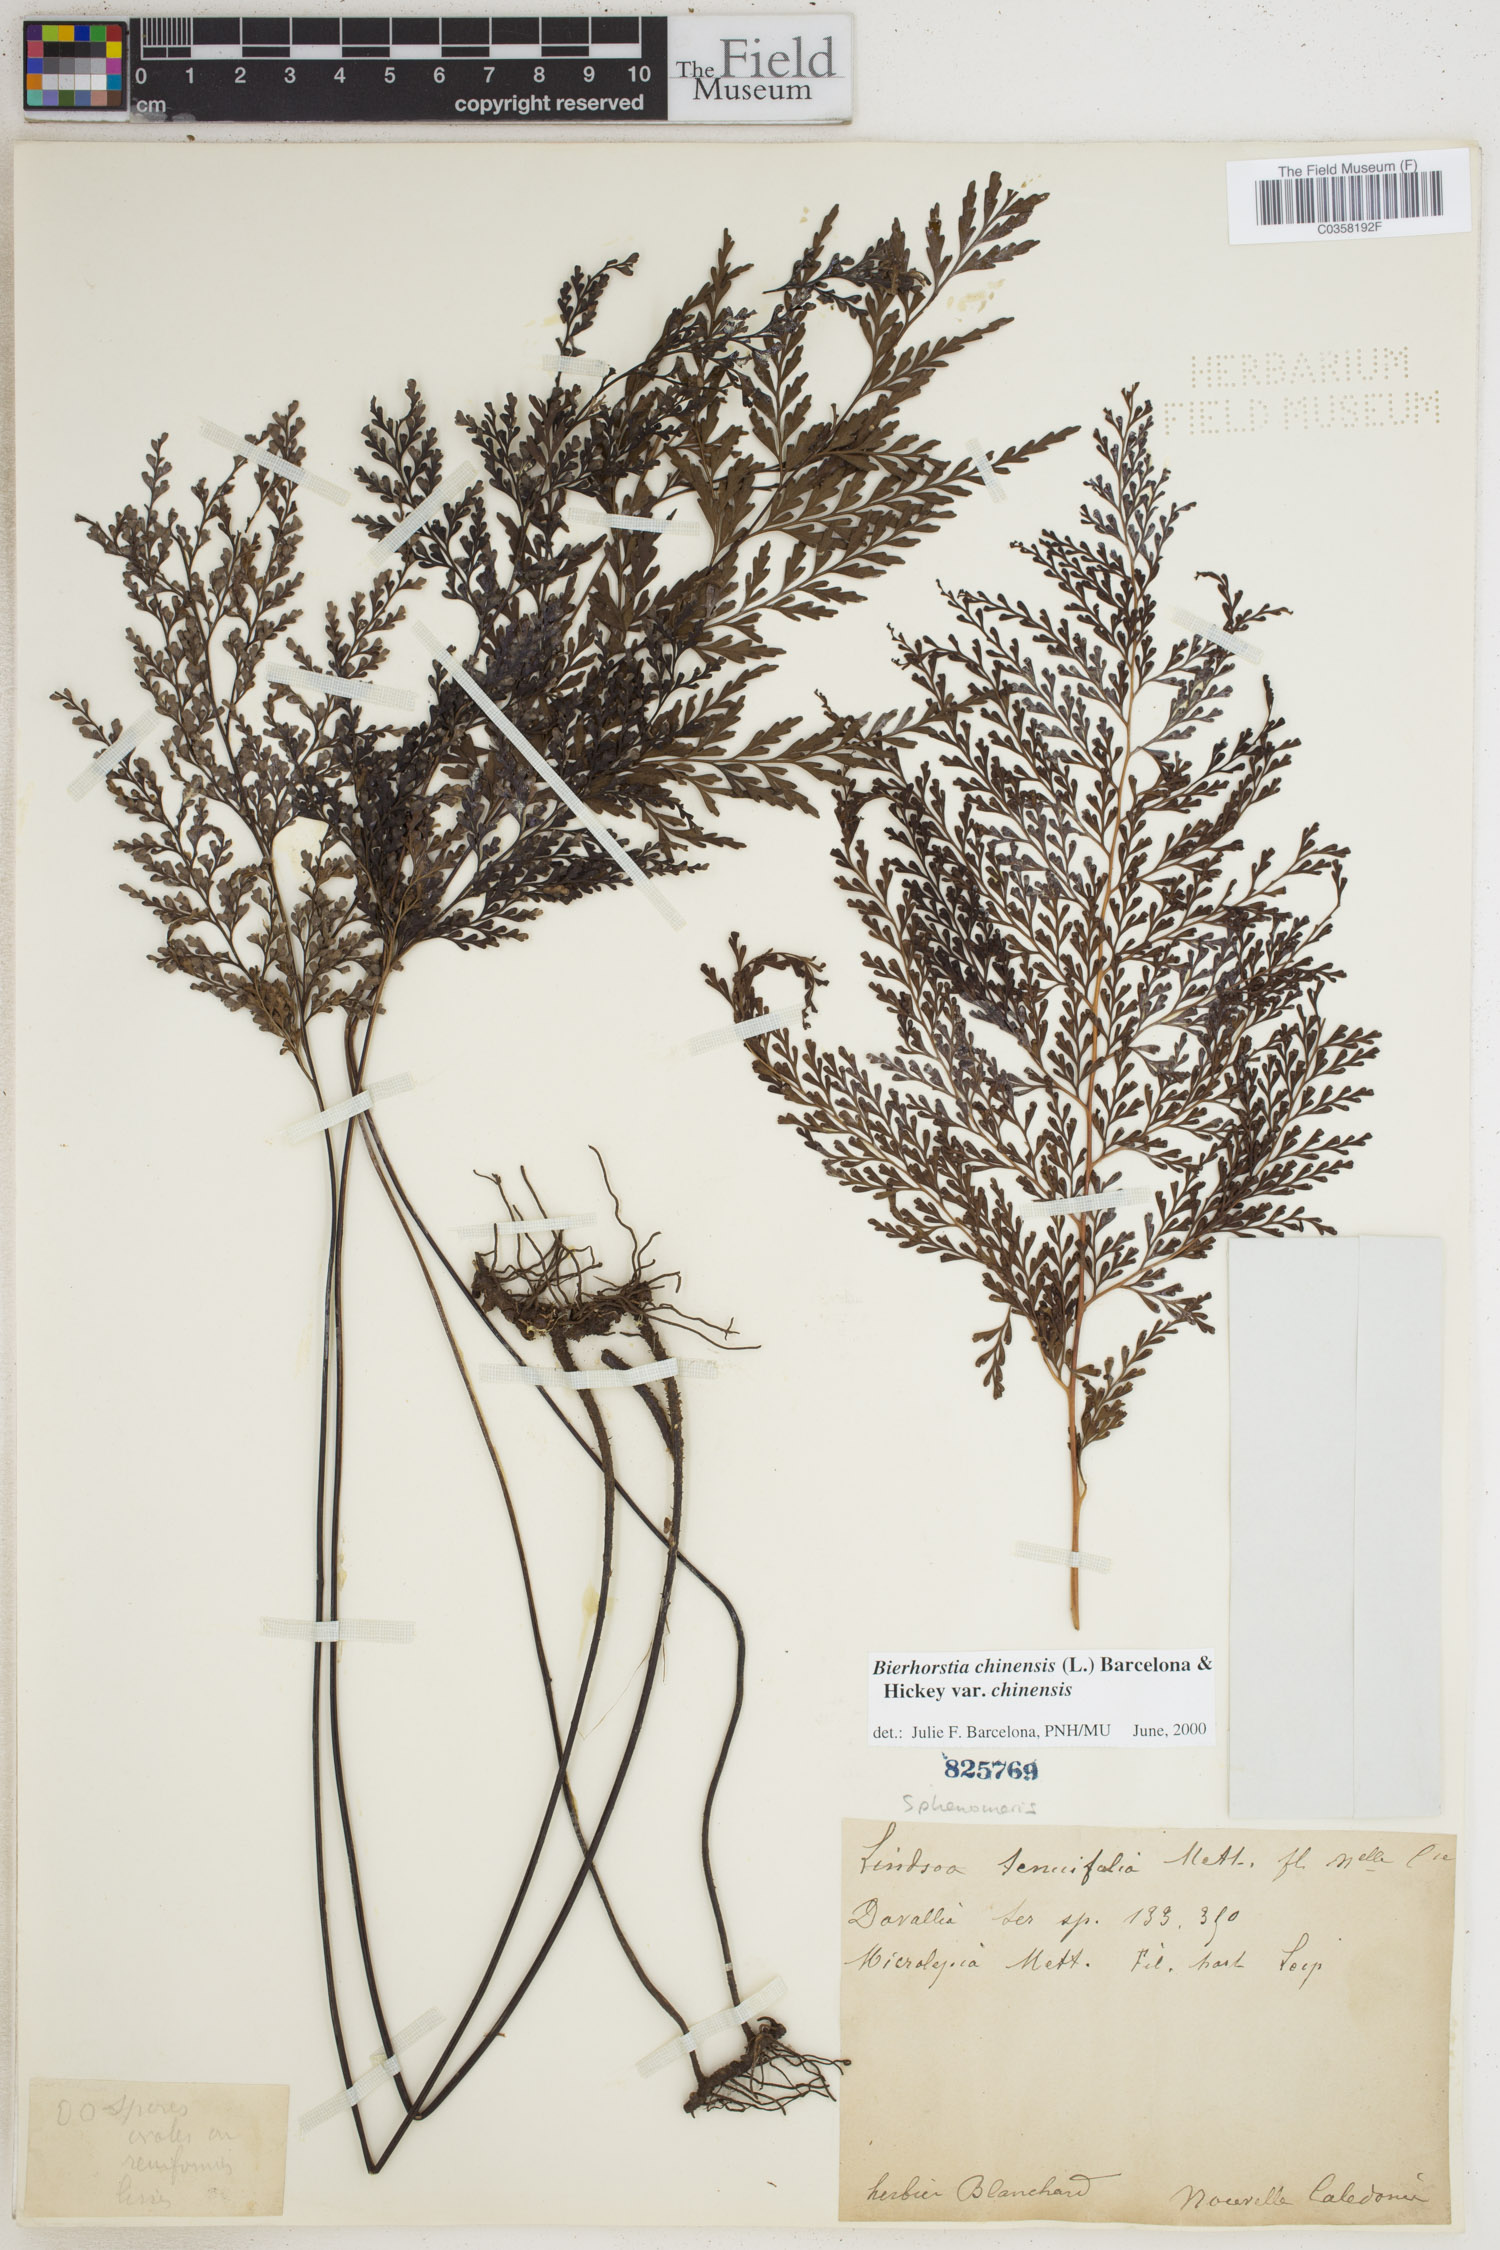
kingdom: Plantae
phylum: Tracheophyta
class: Polypodiopsida
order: Polypodiales
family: Lindsaeaceae
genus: Odontosoria
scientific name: Odontosoria chinensis
